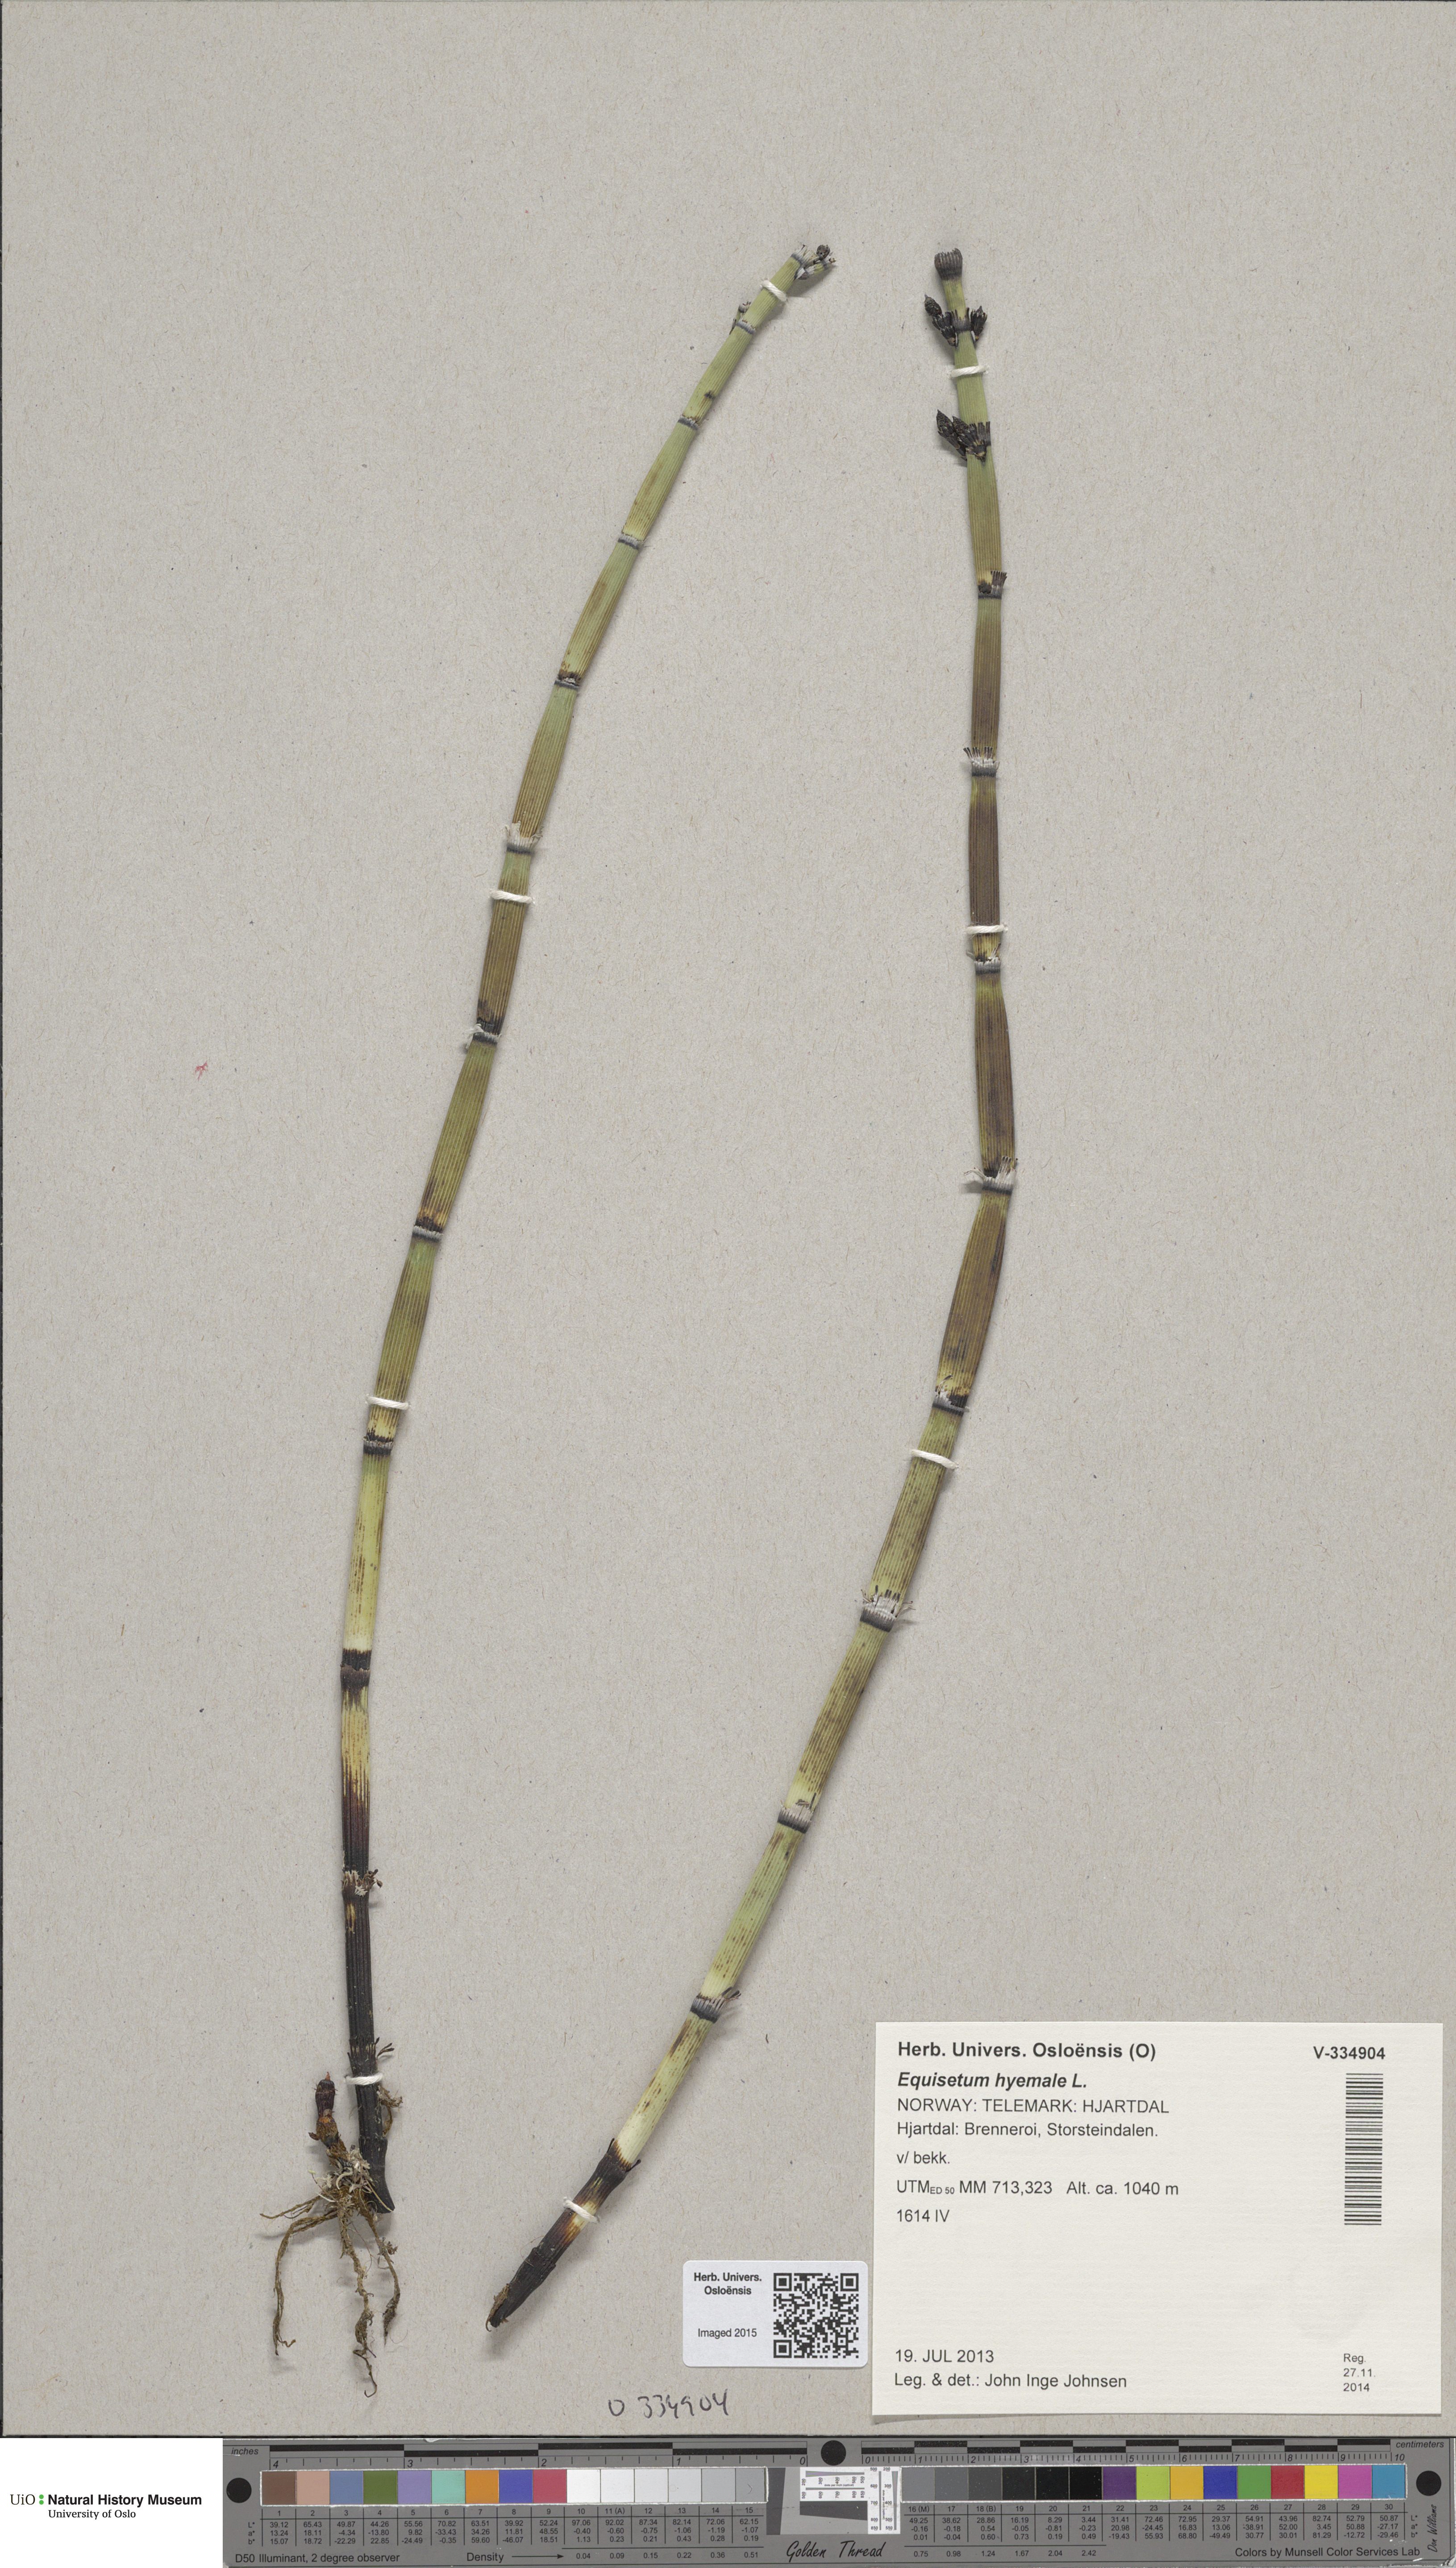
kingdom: Plantae
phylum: Tracheophyta
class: Polypodiopsida
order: Equisetales
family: Equisetaceae
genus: Equisetum
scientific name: Equisetum hyemale
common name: Rough horsetail
